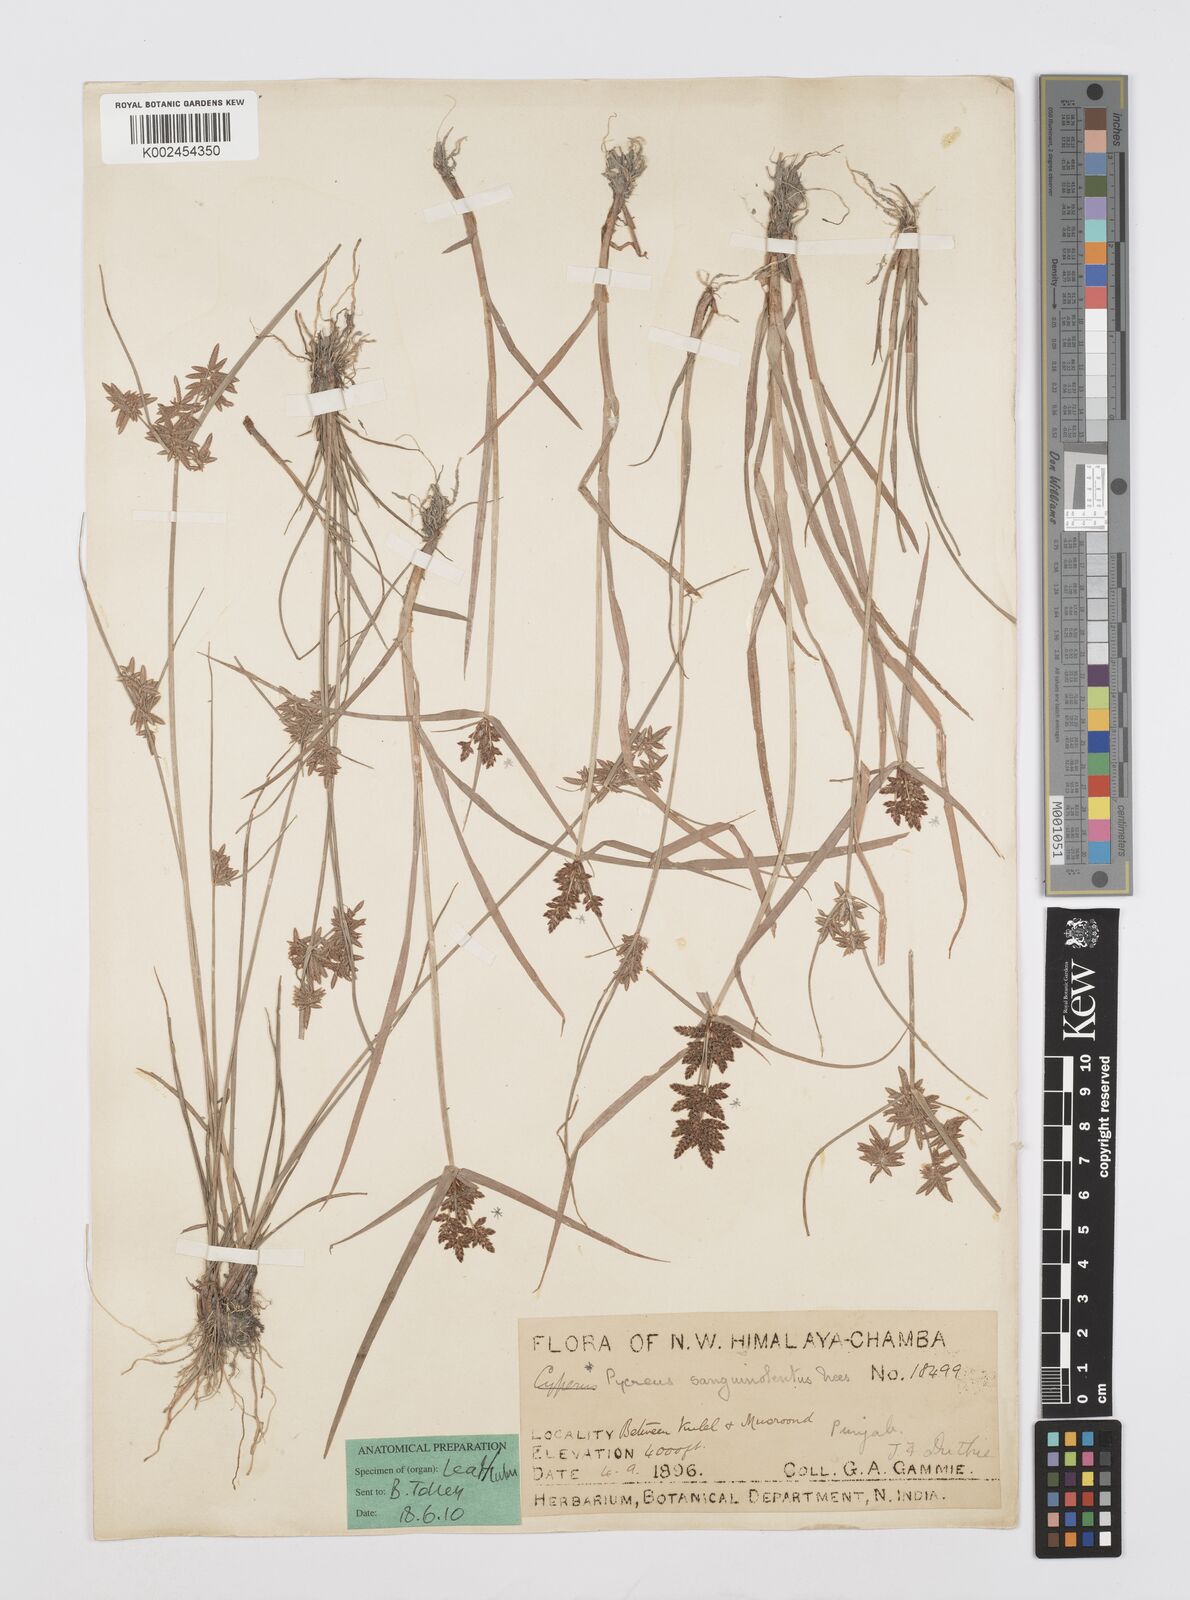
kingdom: Plantae
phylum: Tracheophyta
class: Liliopsida
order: Poales
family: Cyperaceae
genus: Cyperus
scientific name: Cyperus sanguinolentus
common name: Purpleglume flatsedge
